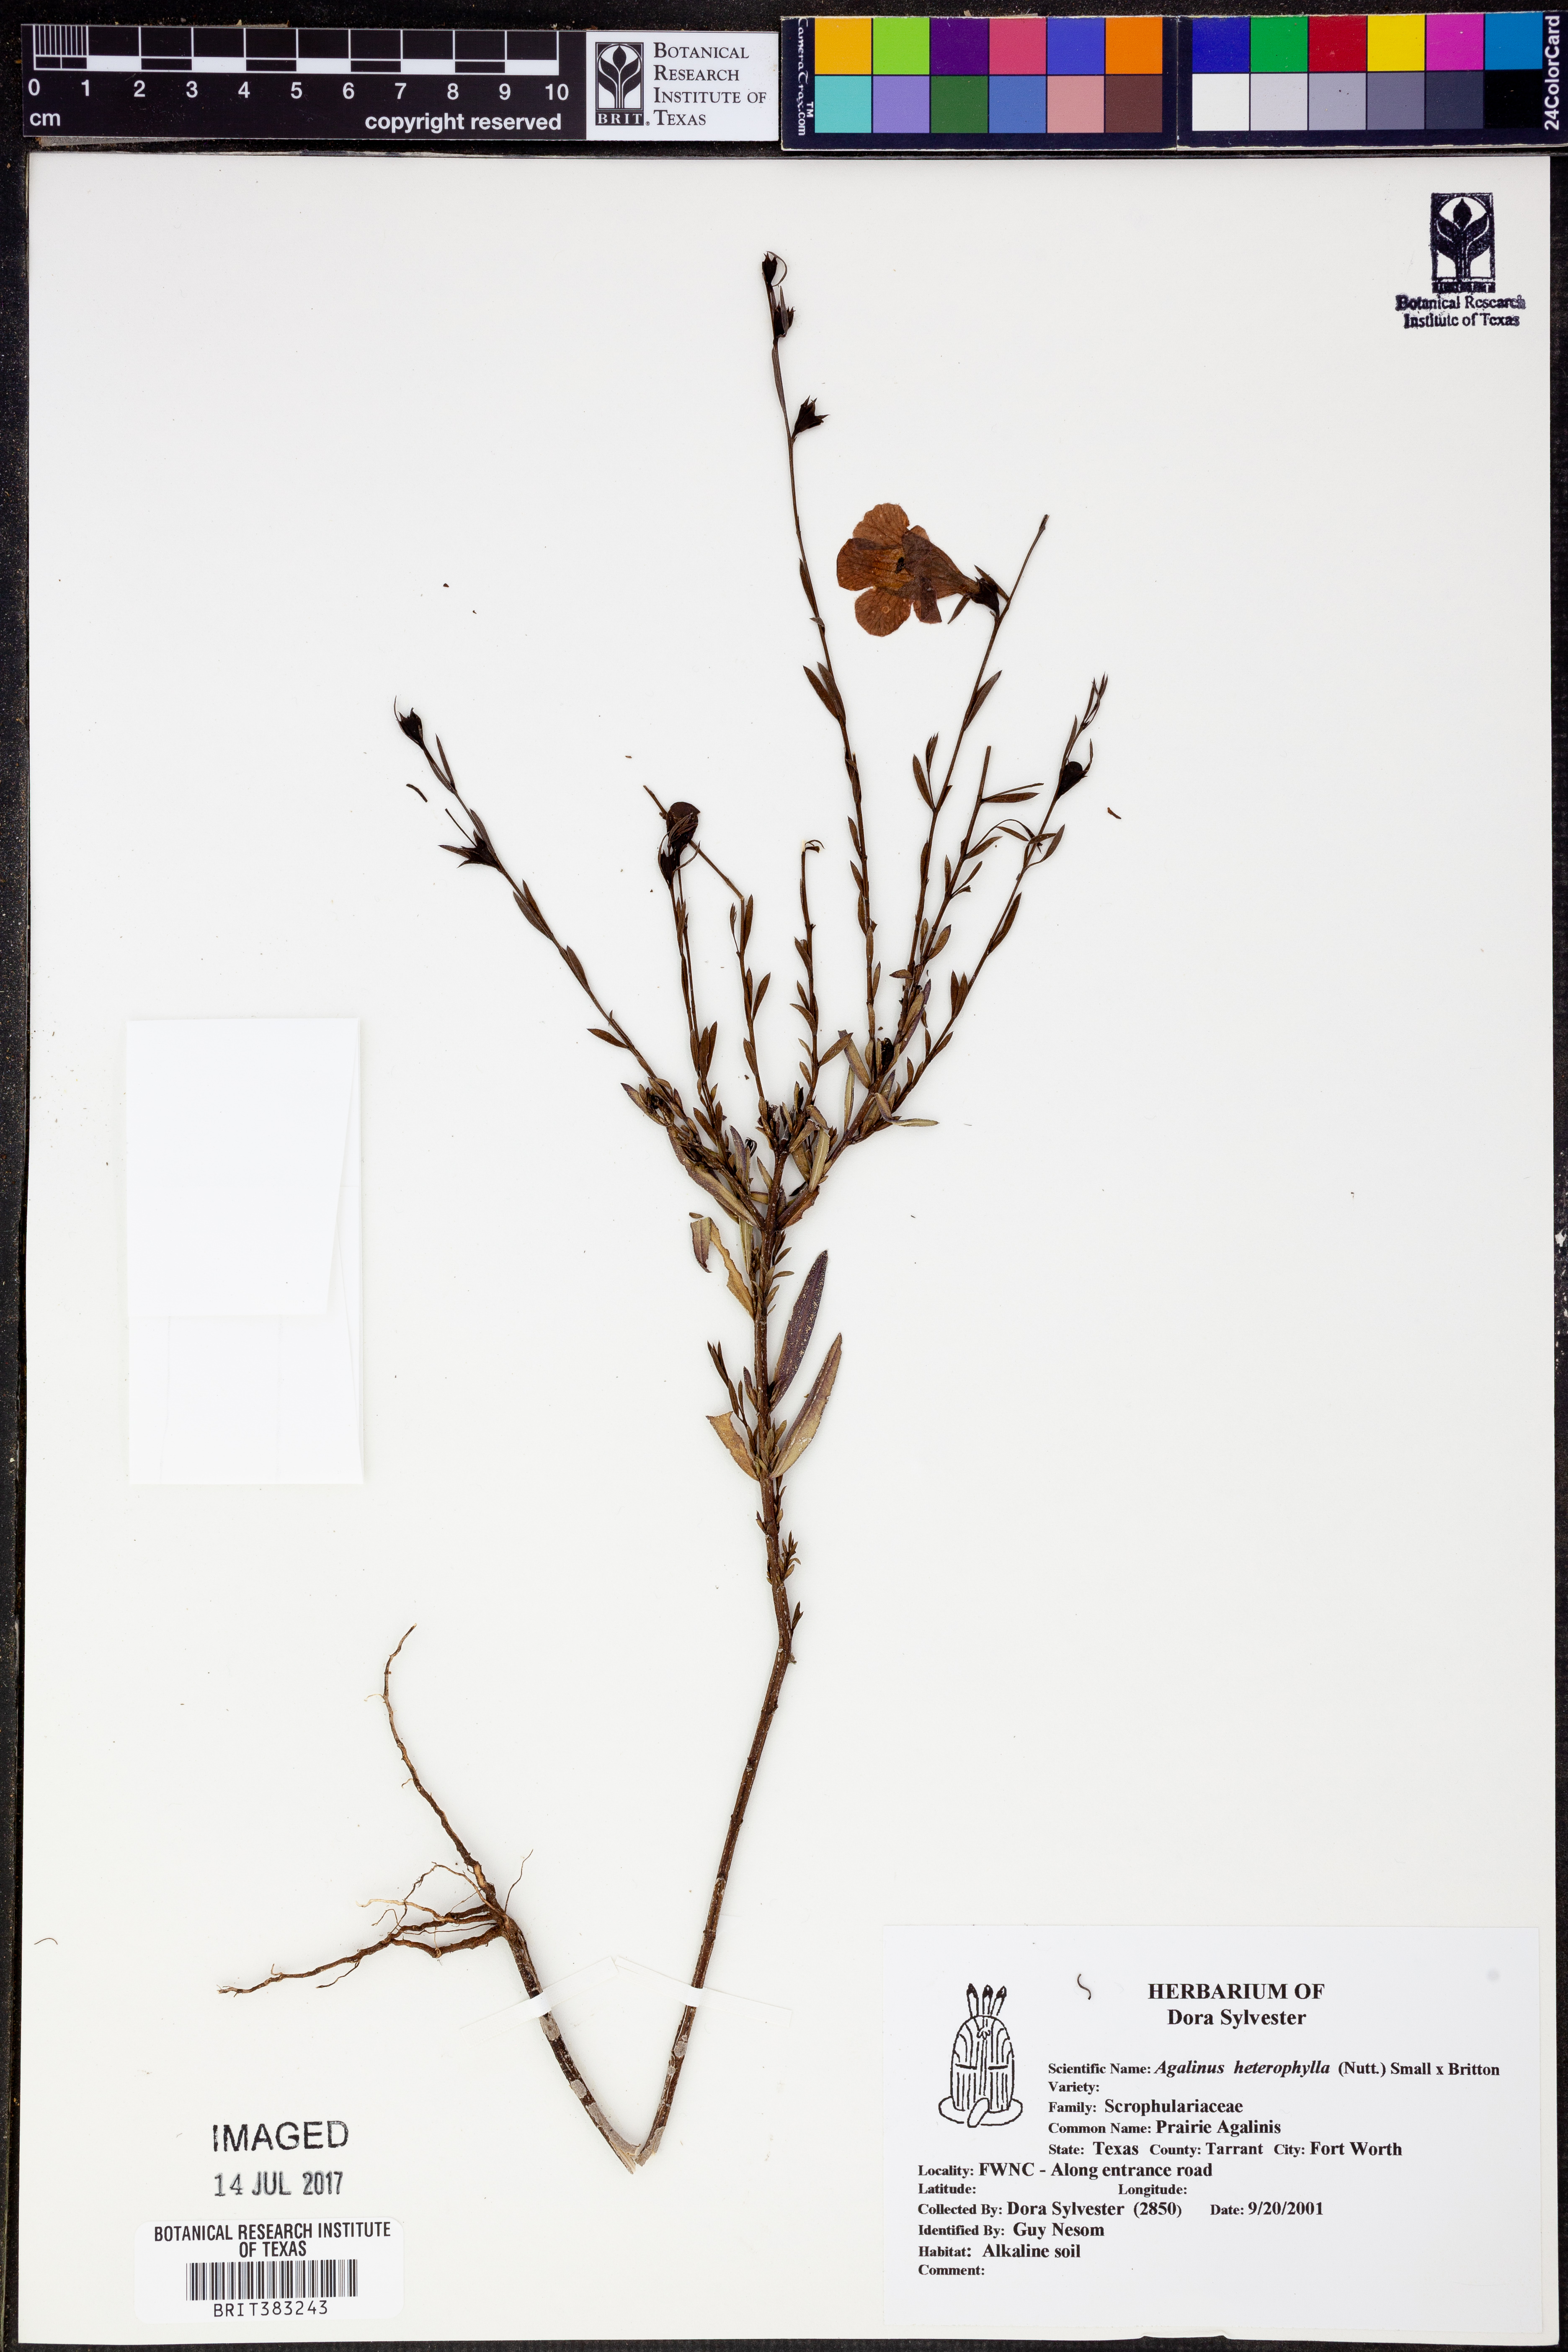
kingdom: Plantae
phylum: Tracheophyta
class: Magnoliopsida
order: Lamiales
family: Orobanchaceae
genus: Agalinis
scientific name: Agalinis heterophylla
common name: Prairie agalinis
